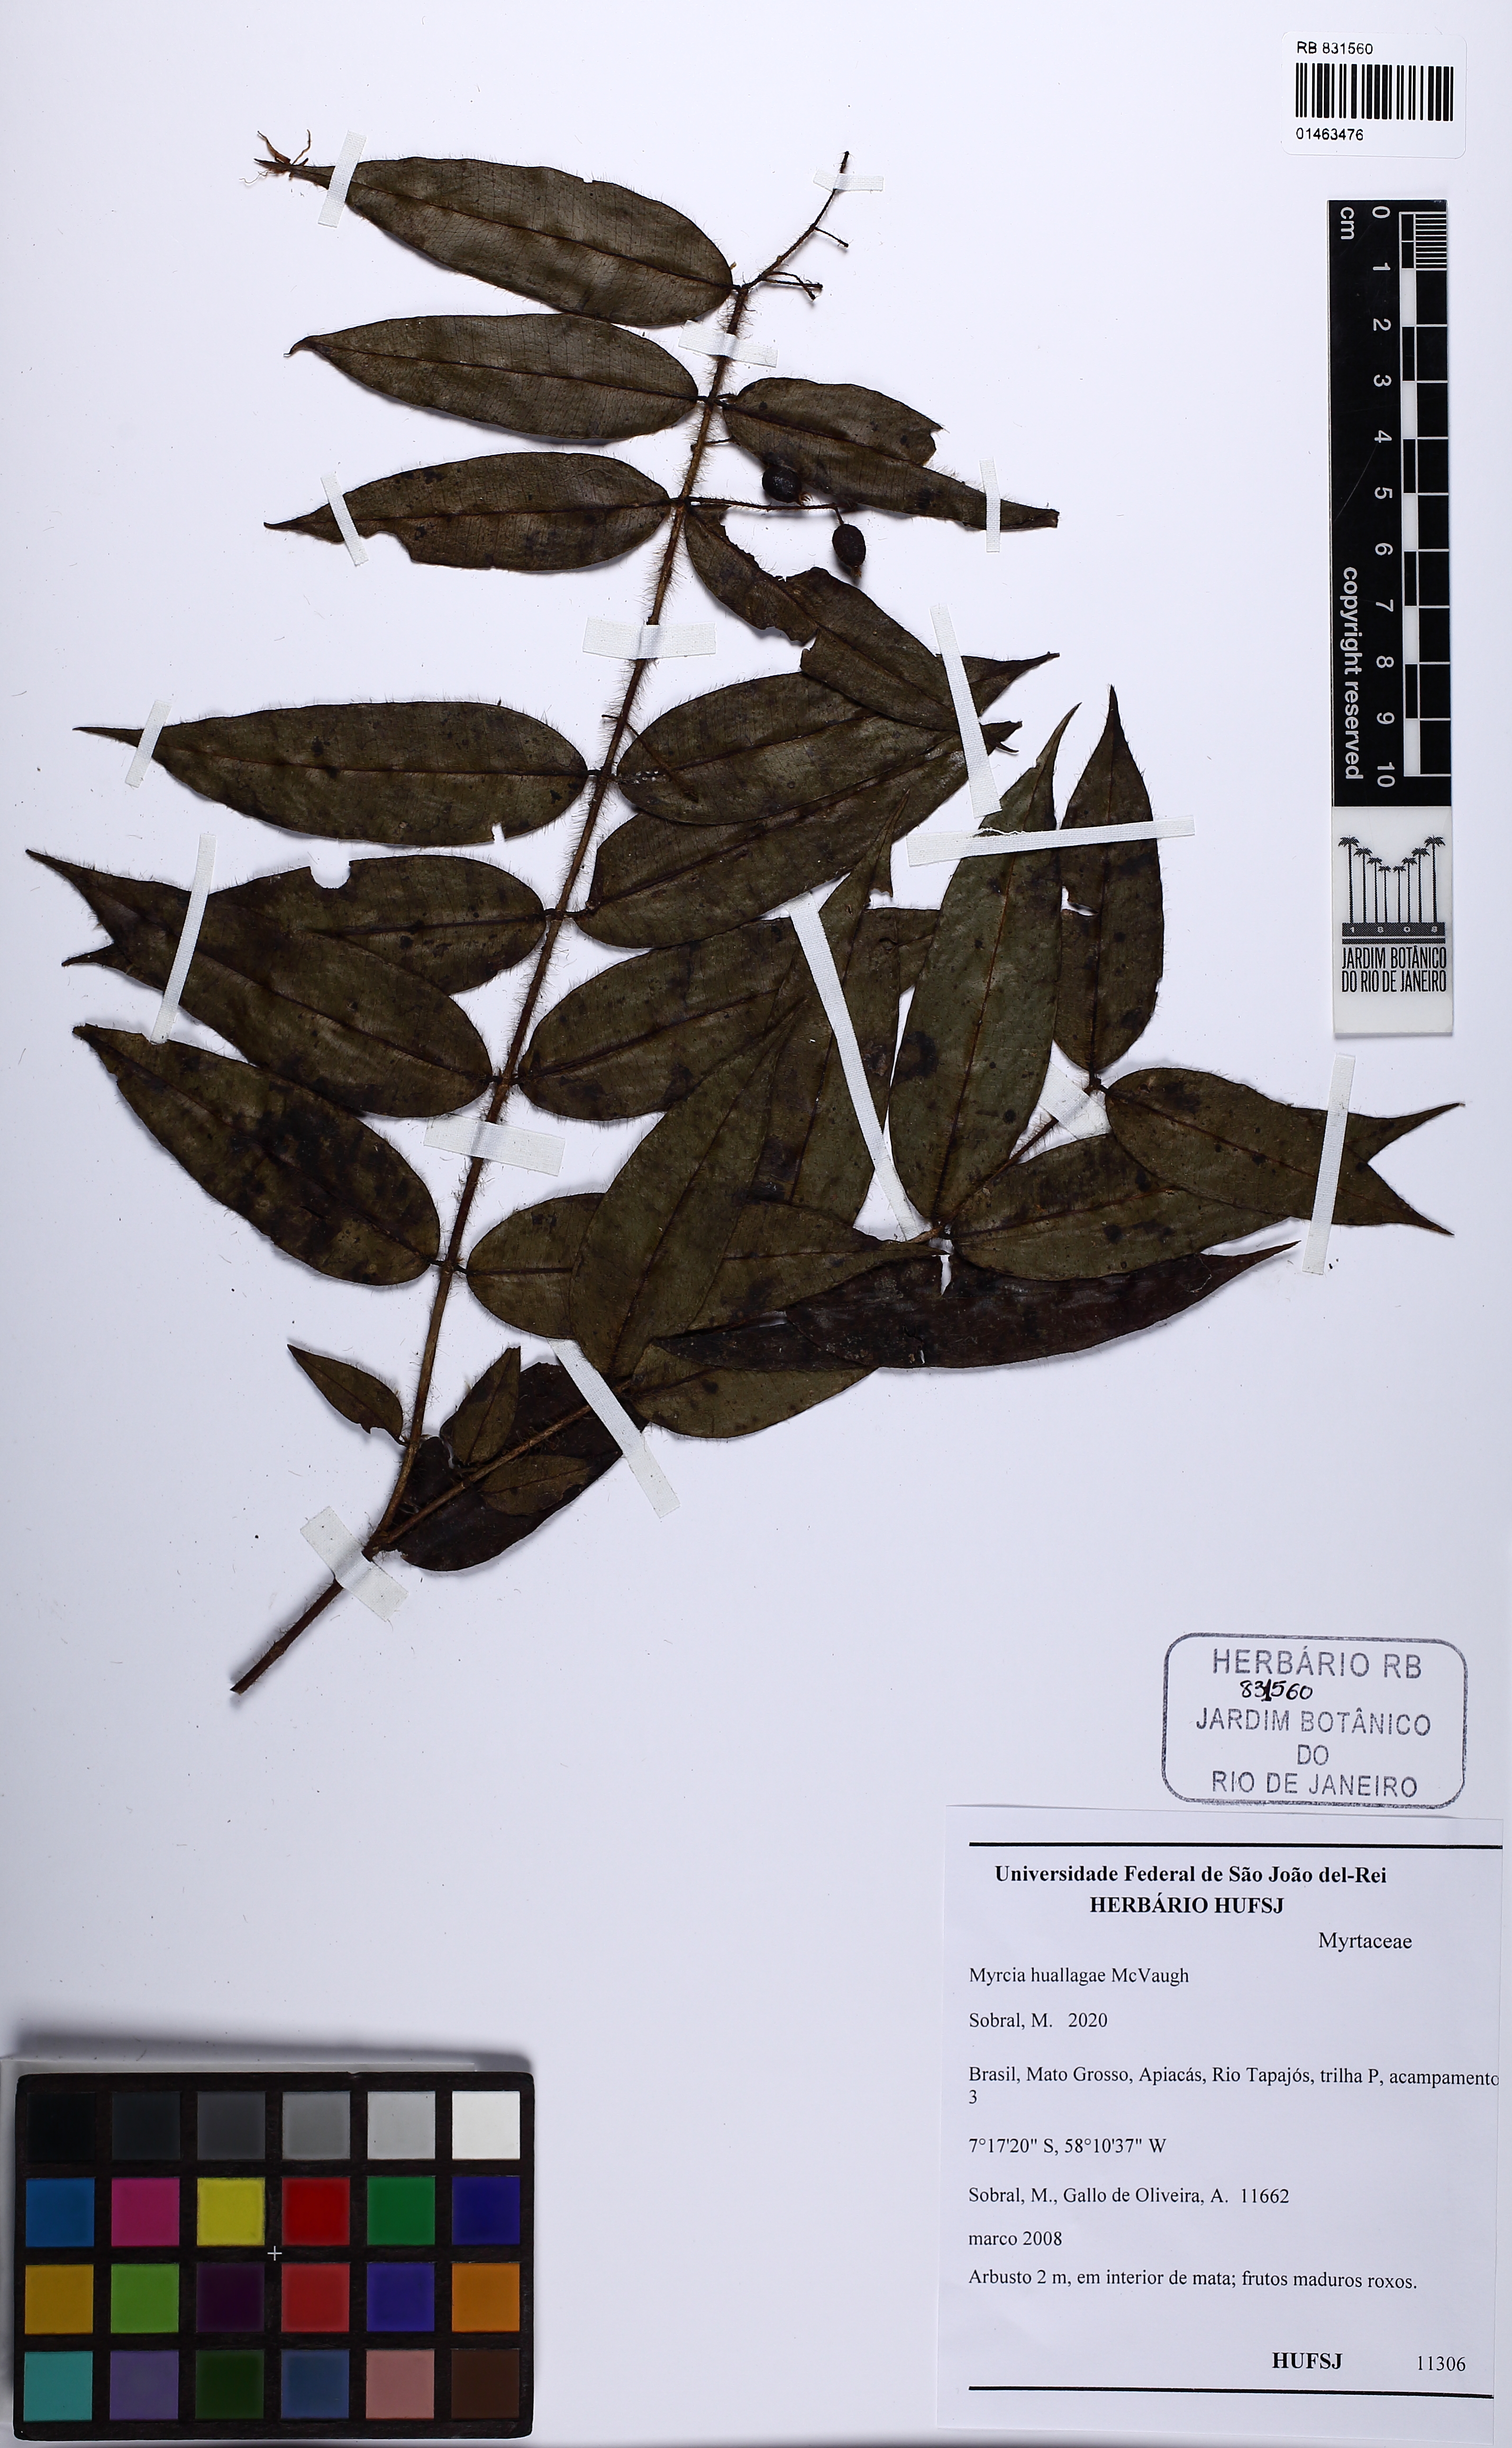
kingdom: Plantae
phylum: Tracheophyta
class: Magnoliopsida
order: Myrtales
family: Myrtaceae
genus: Myrcia
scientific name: Myrcia huallagae
